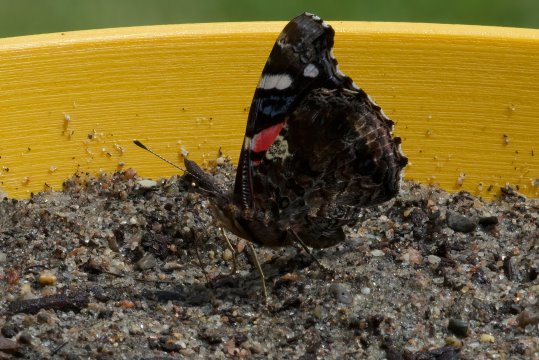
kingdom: Animalia
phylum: Arthropoda
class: Insecta
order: Lepidoptera
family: Nymphalidae
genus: Vanessa
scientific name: Vanessa atalanta
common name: Red Admiral
